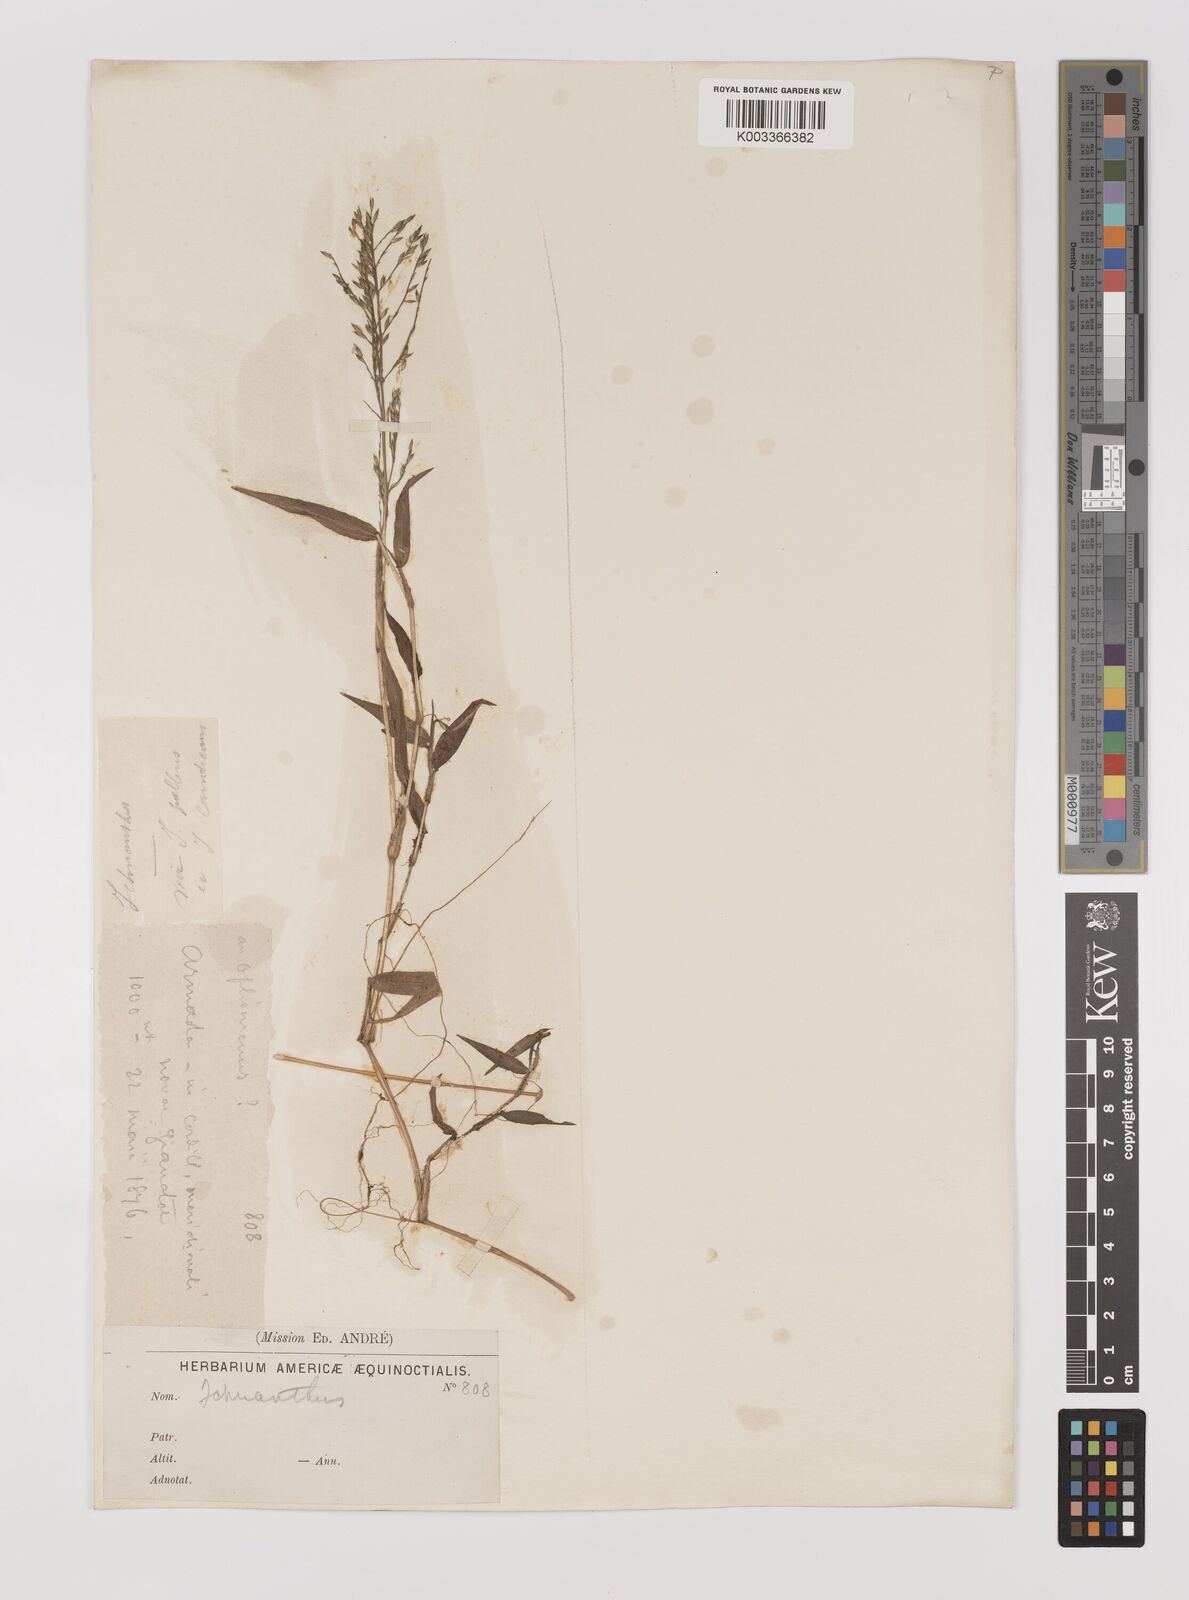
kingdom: Plantae
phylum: Tracheophyta
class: Liliopsida
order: Poales
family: Poaceae
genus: Ichnanthus
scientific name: Ichnanthus tenuis
